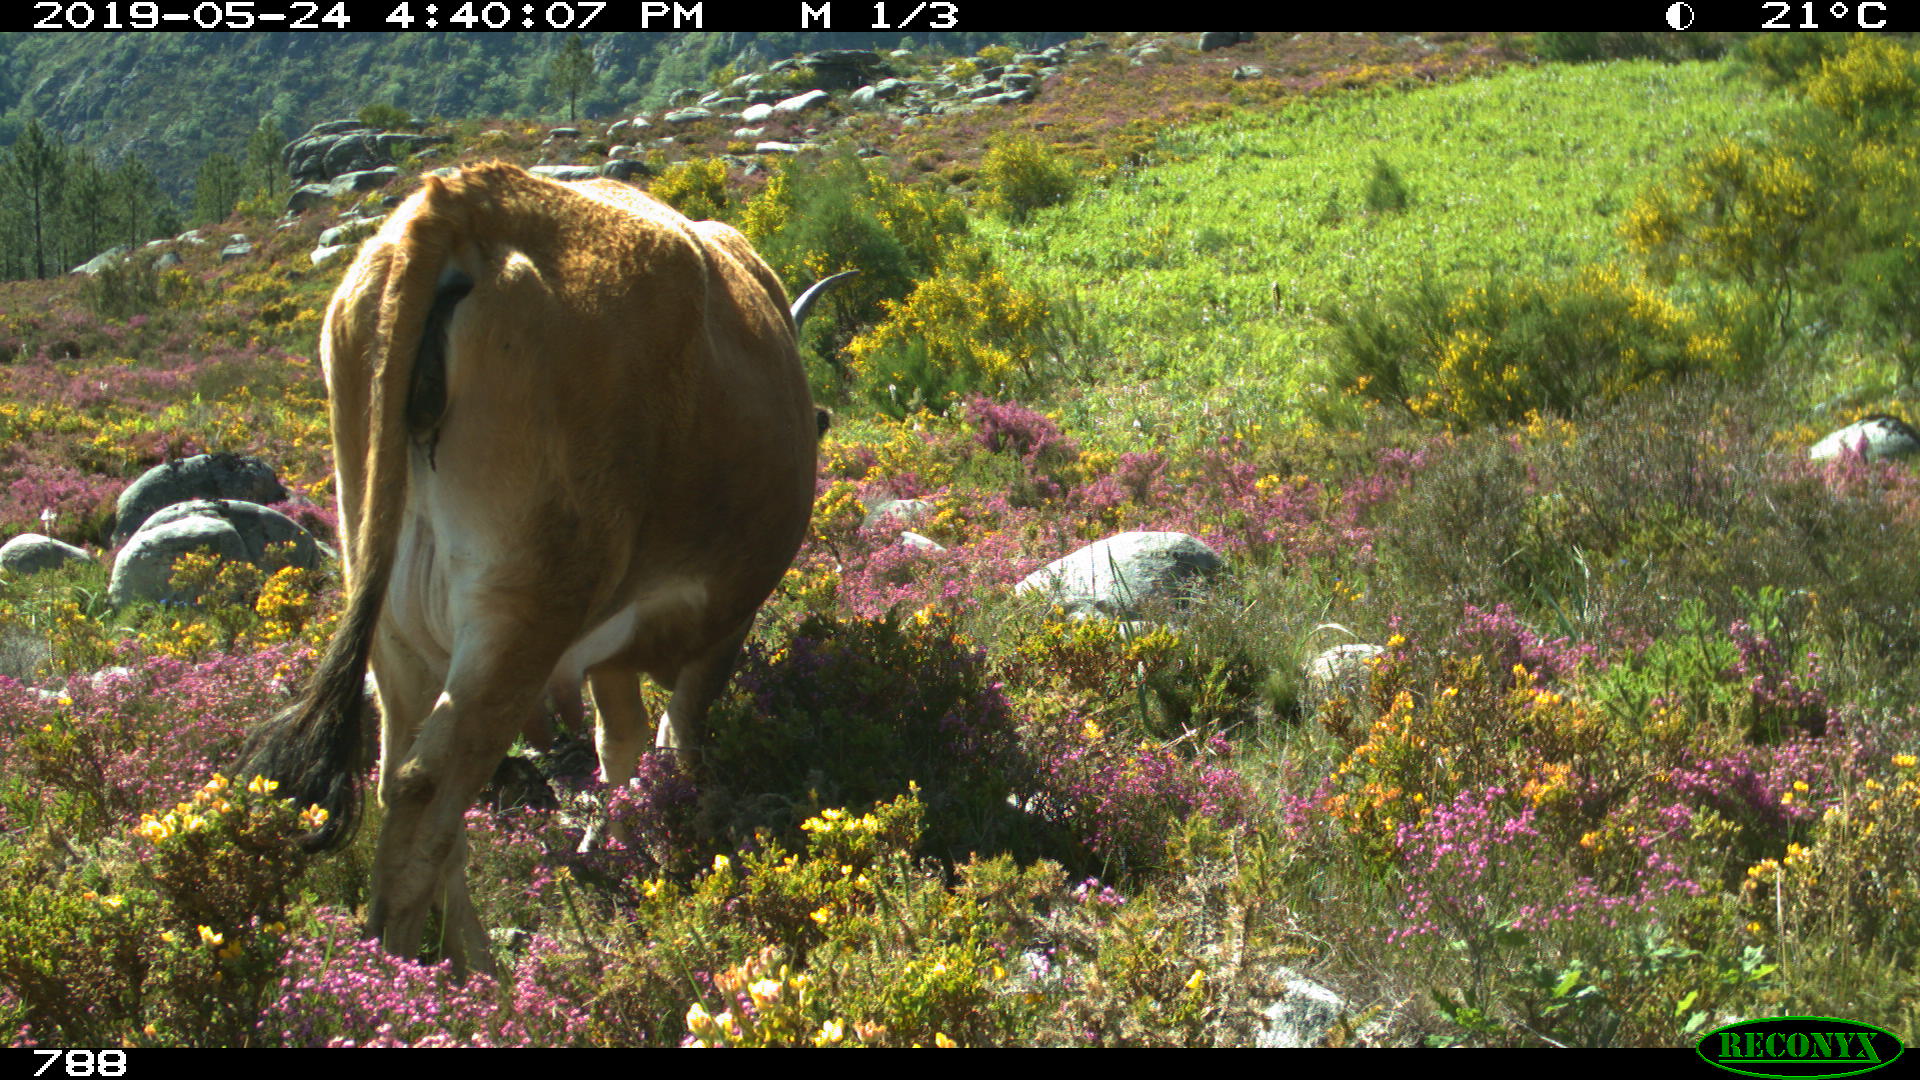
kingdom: Animalia
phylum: Chordata
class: Mammalia
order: Artiodactyla
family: Bovidae
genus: Bos
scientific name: Bos taurus
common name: Domesticated cattle
